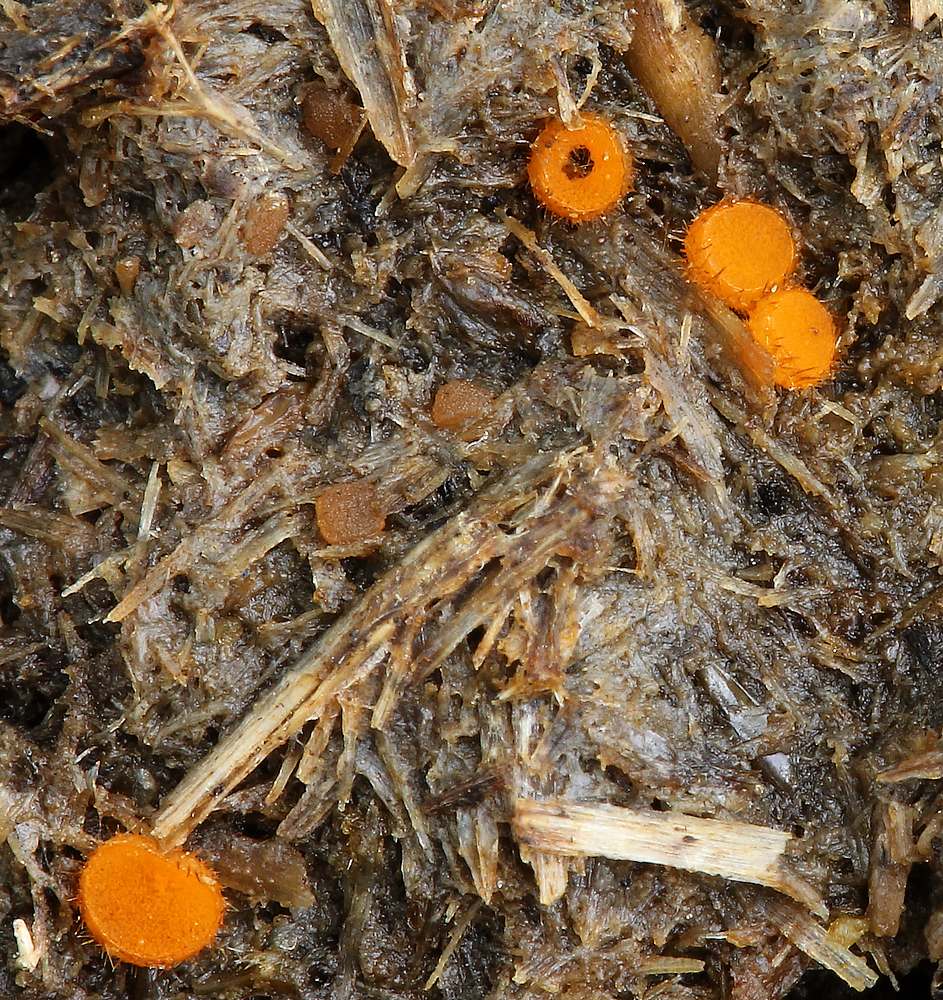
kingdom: Fungi
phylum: Ascomycota
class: Pezizomycetes
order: Pezizales
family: Pyronemataceae
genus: Cheilymenia
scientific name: Cheilymenia
